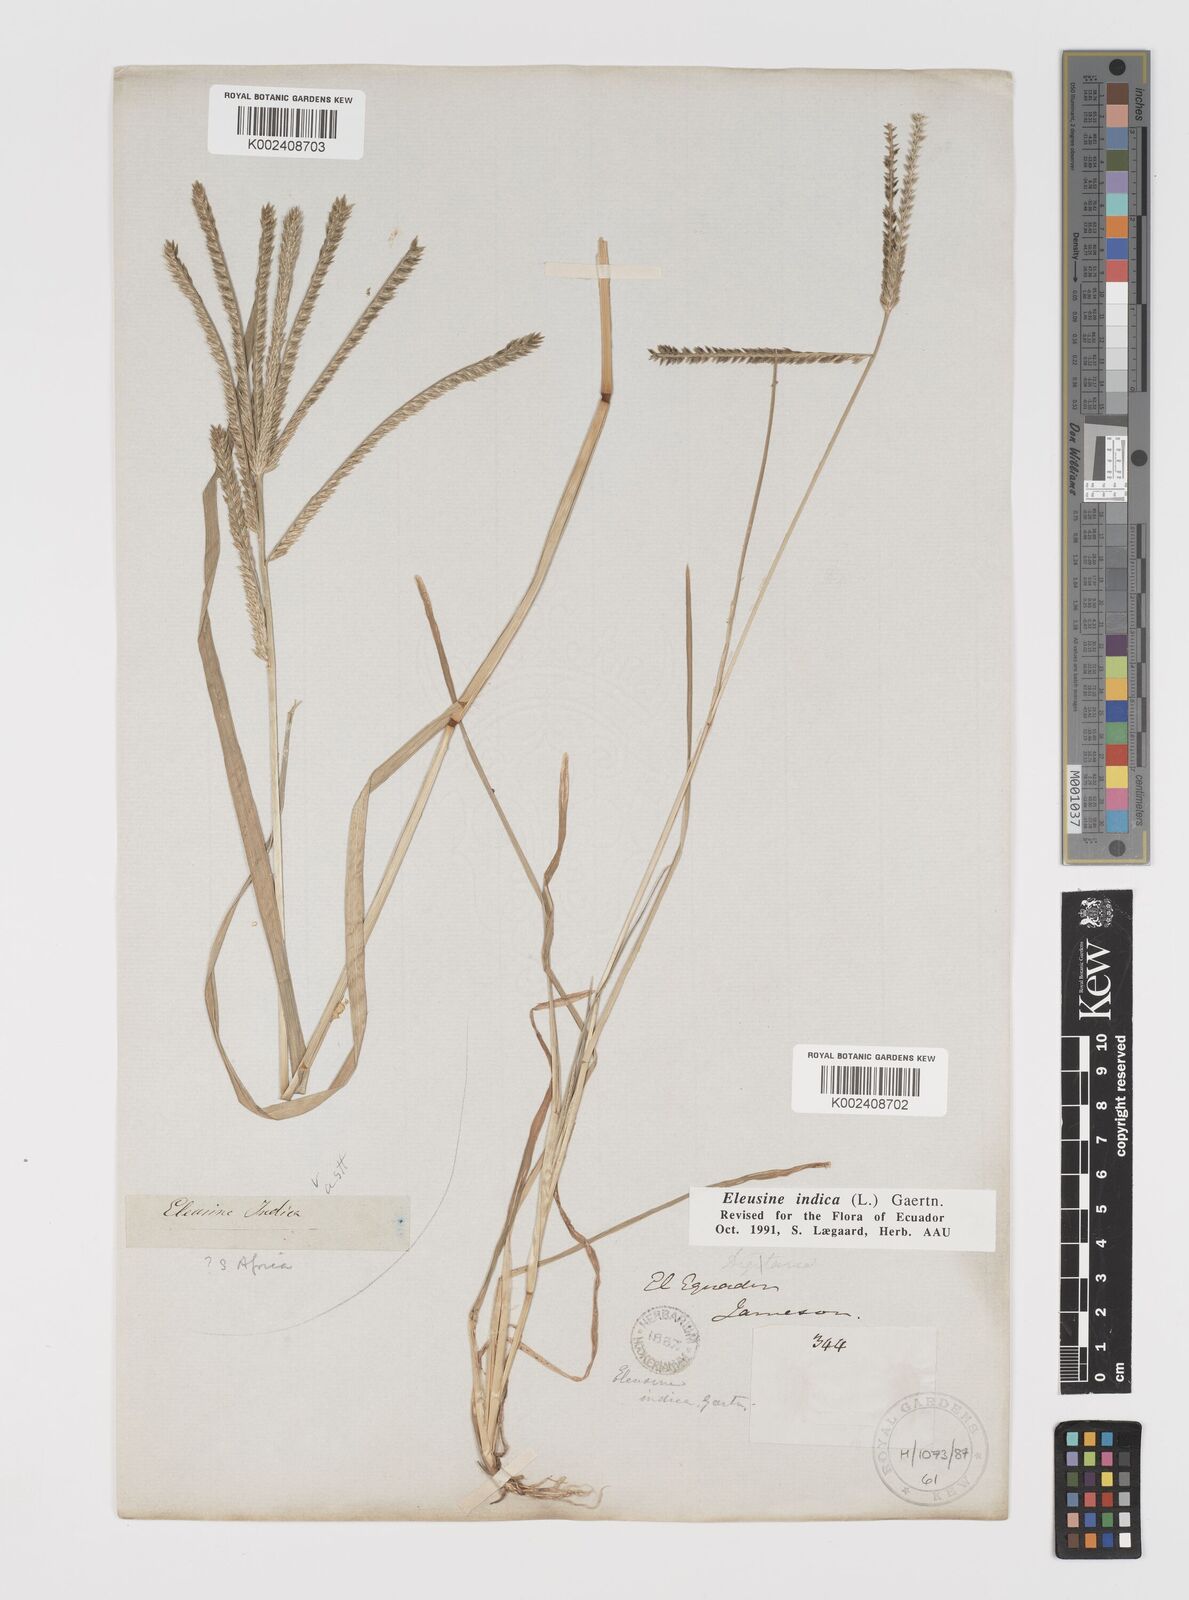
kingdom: Plantae
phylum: Tracheophyta
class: Liliopsida
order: Poales
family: Poaceae
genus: Eleusine
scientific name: Eleusine indica
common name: Yard-grass
